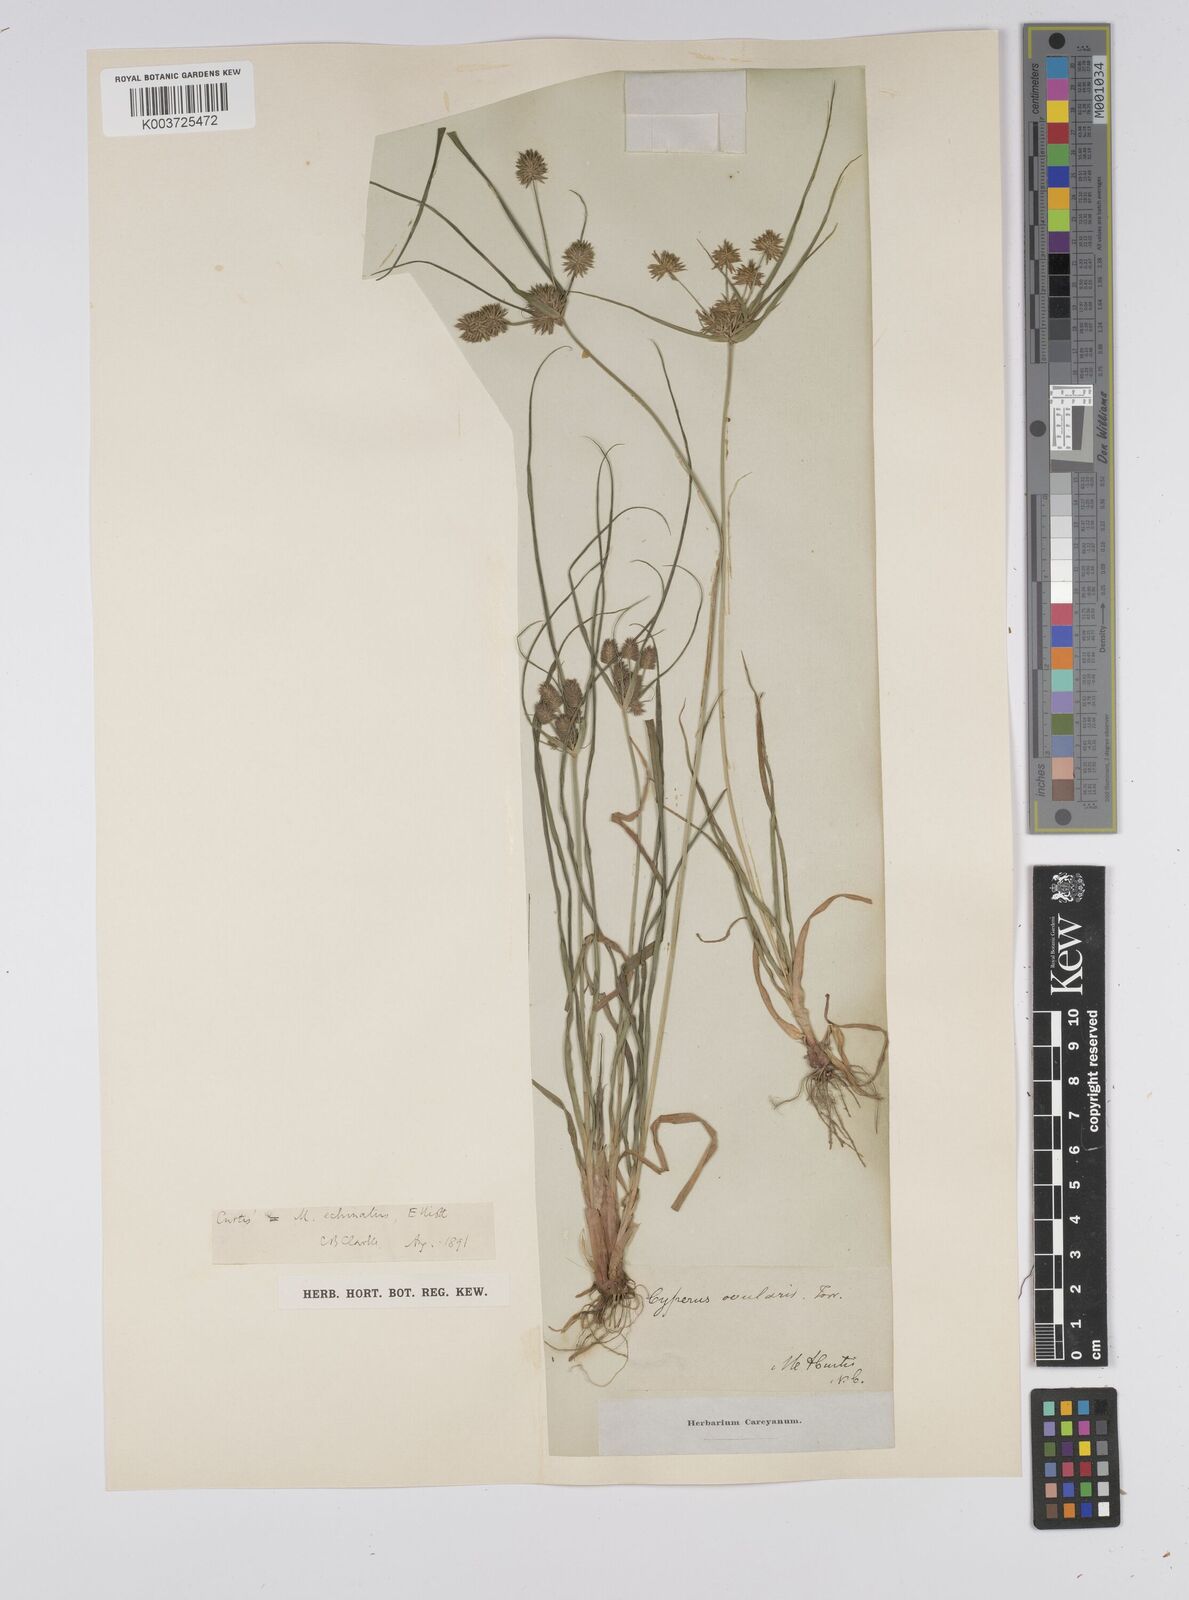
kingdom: Plantae
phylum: Tracheophyta
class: Liliopsida
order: Poales
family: Cyperaceae
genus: Cyperus
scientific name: Cyperus luzulae
